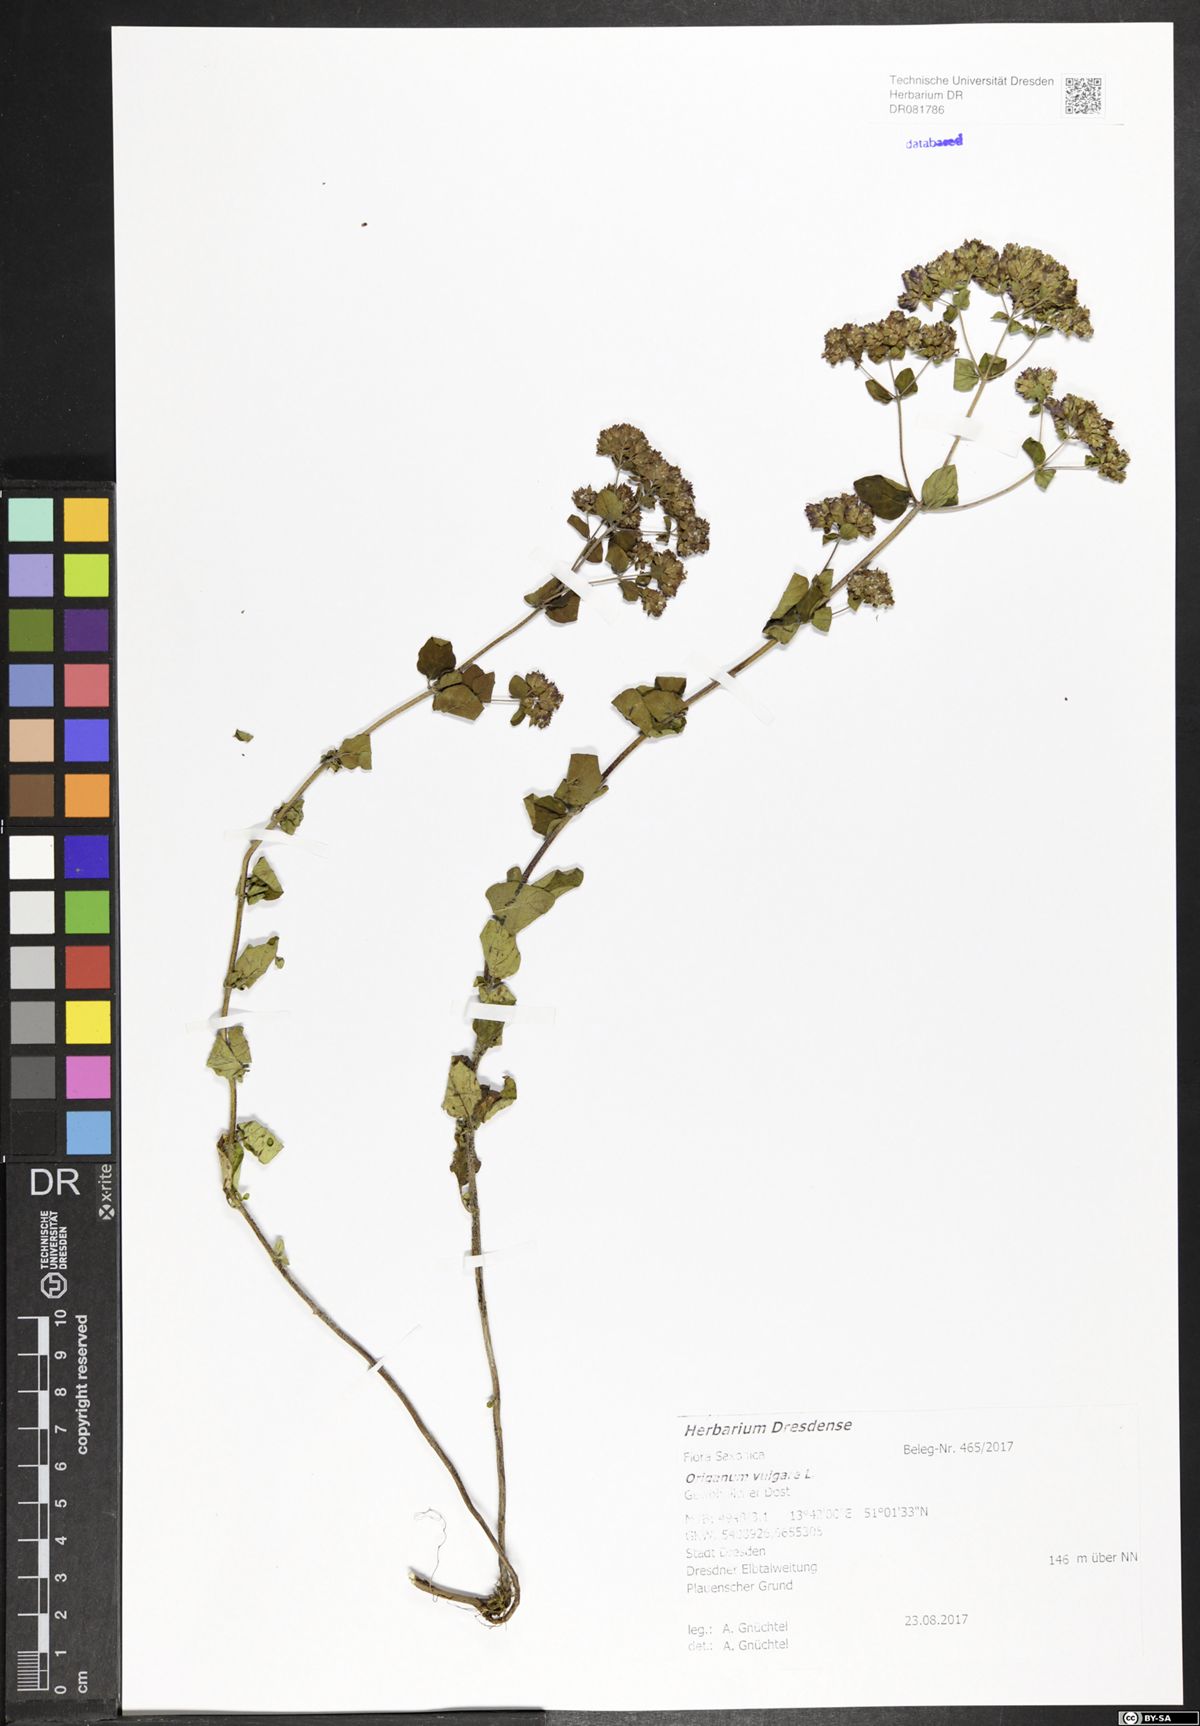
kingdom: Plantae
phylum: Tracheophyta
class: Magnoliopsida
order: Lamiales
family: Lamiaceae
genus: Origanum
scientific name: Origanum vulgare
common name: Wild marjoram
